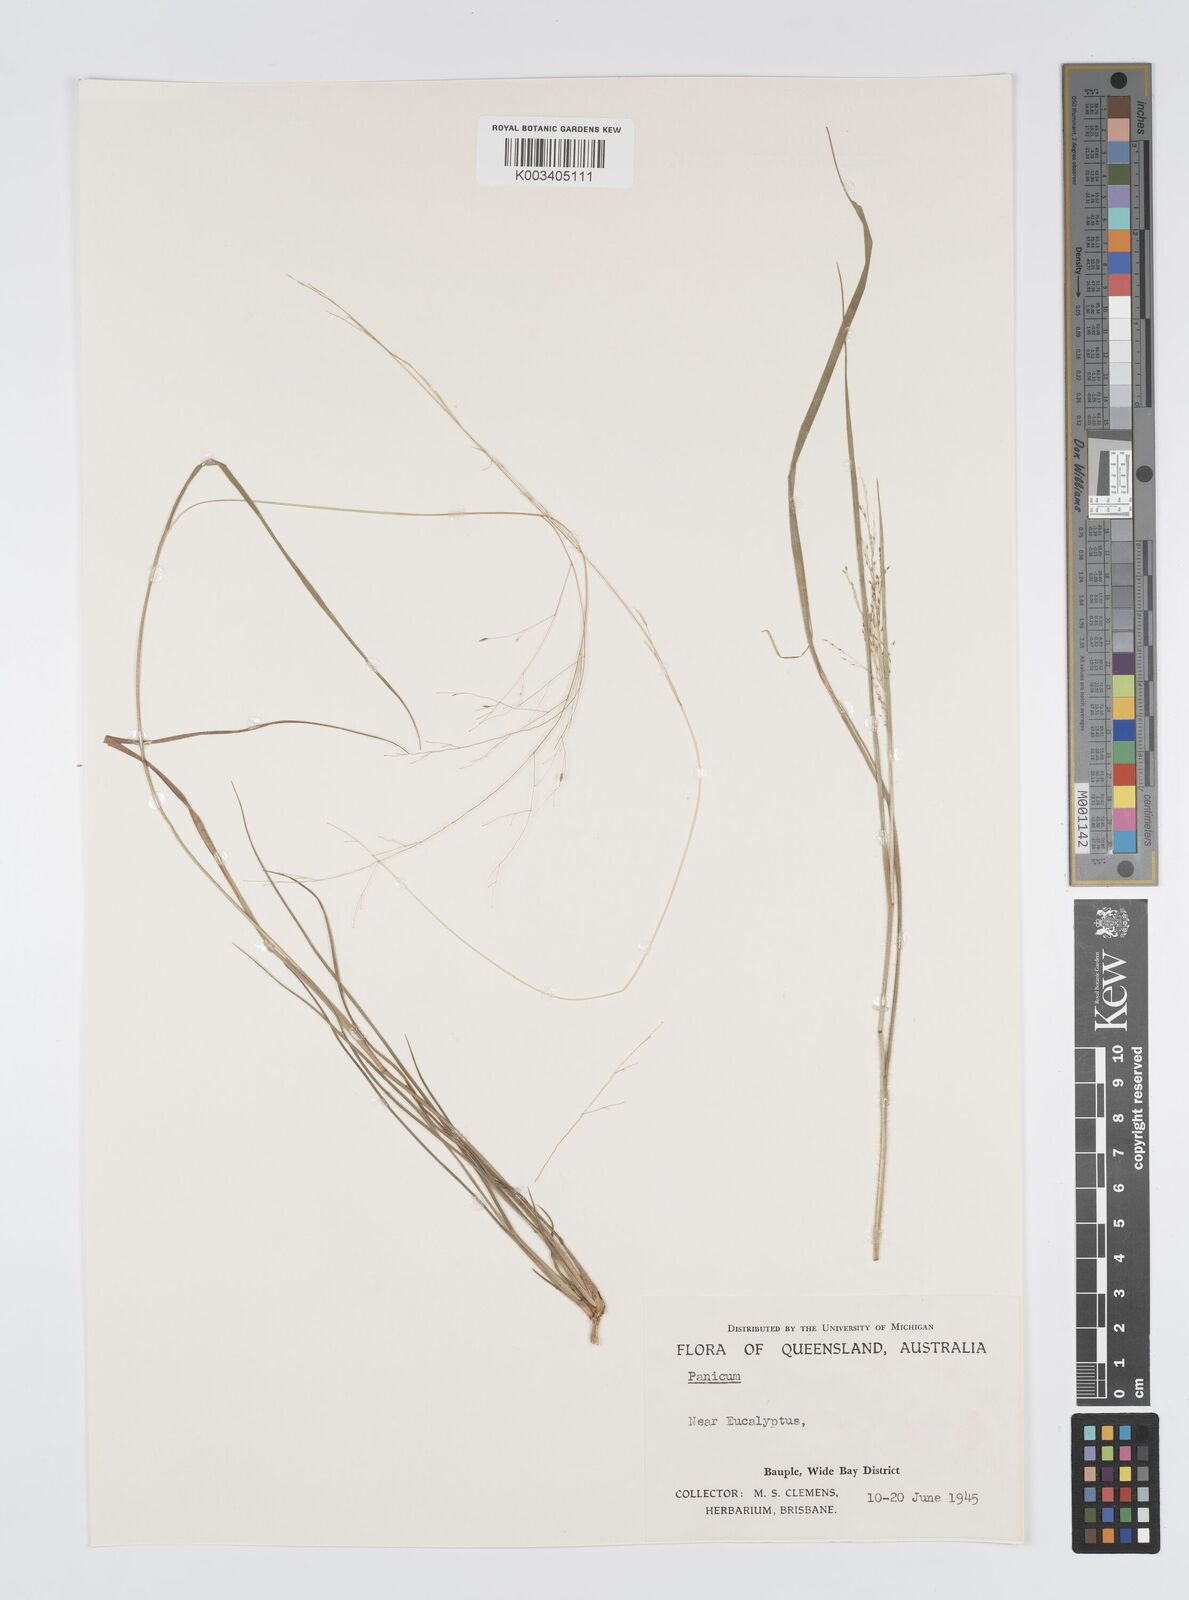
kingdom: Plantae
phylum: Tracheophyta
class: Liliopsida
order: Poales
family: Poaceae
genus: Panicum
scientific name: Panicum simile
